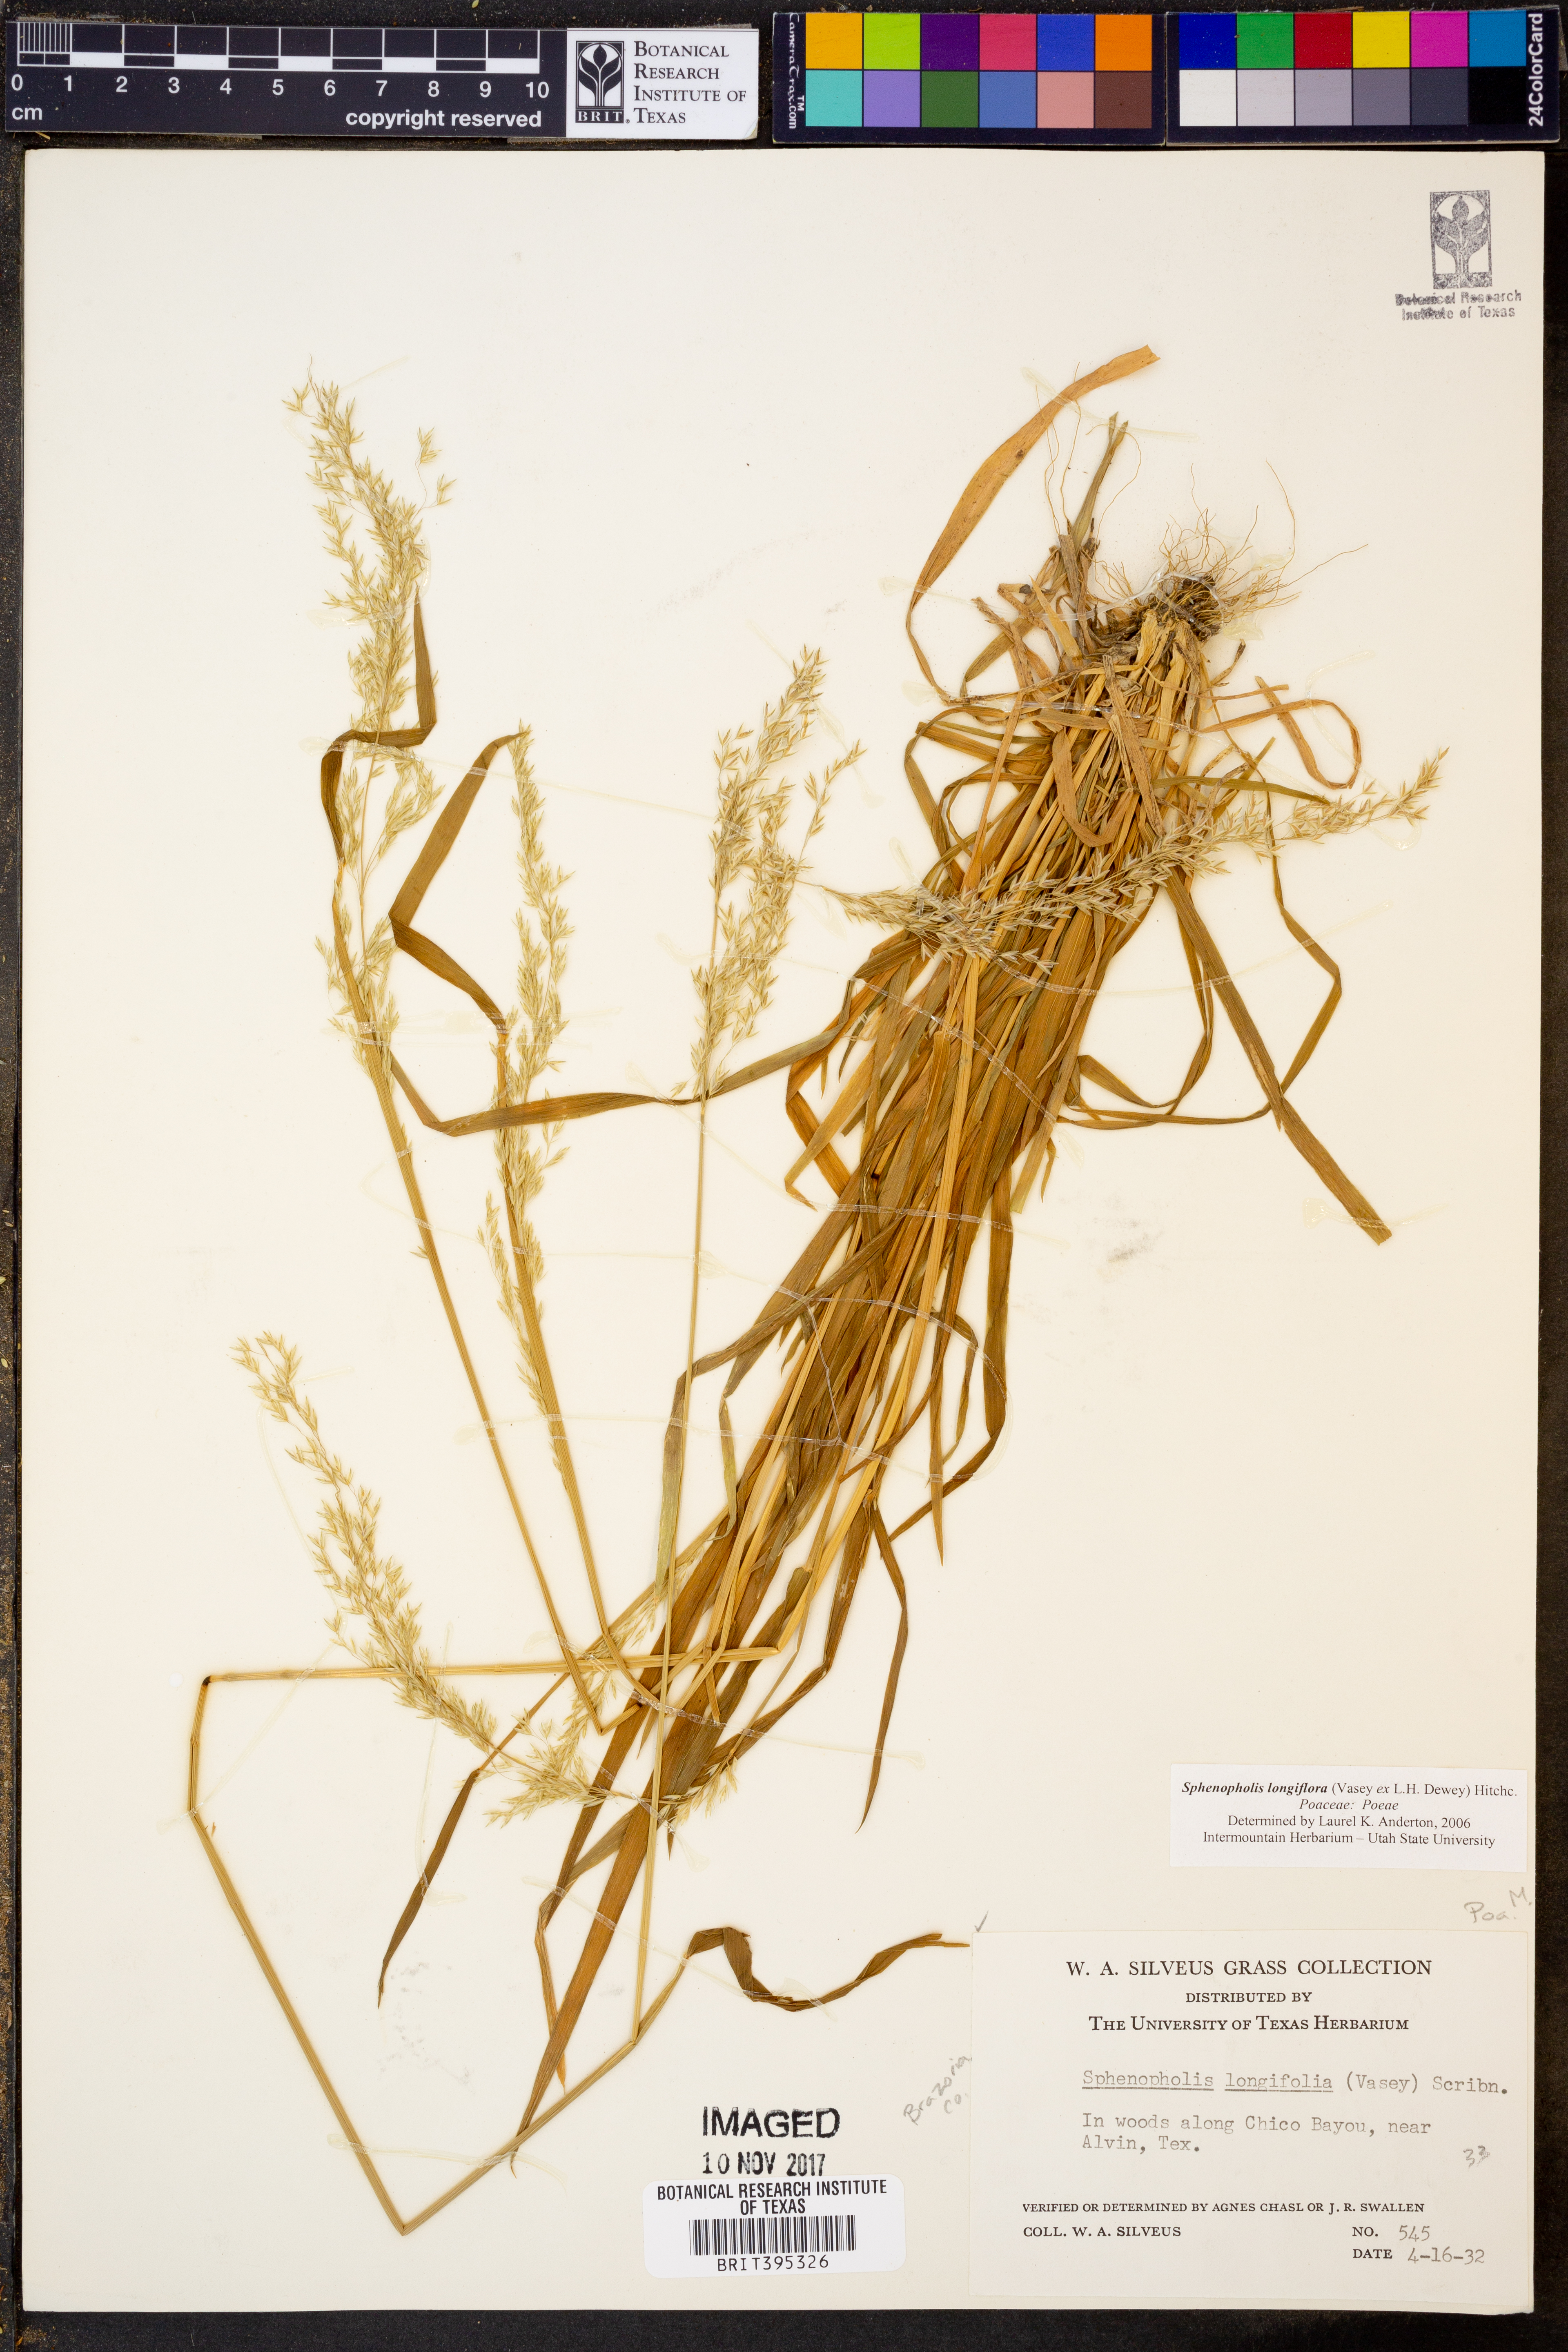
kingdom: Plantae
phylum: Tracheophyta
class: Liliopsida
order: Poales
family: Poaceae
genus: Sphenopholis
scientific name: Sphenopholis intermedia
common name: Intermediate eaton's grass
